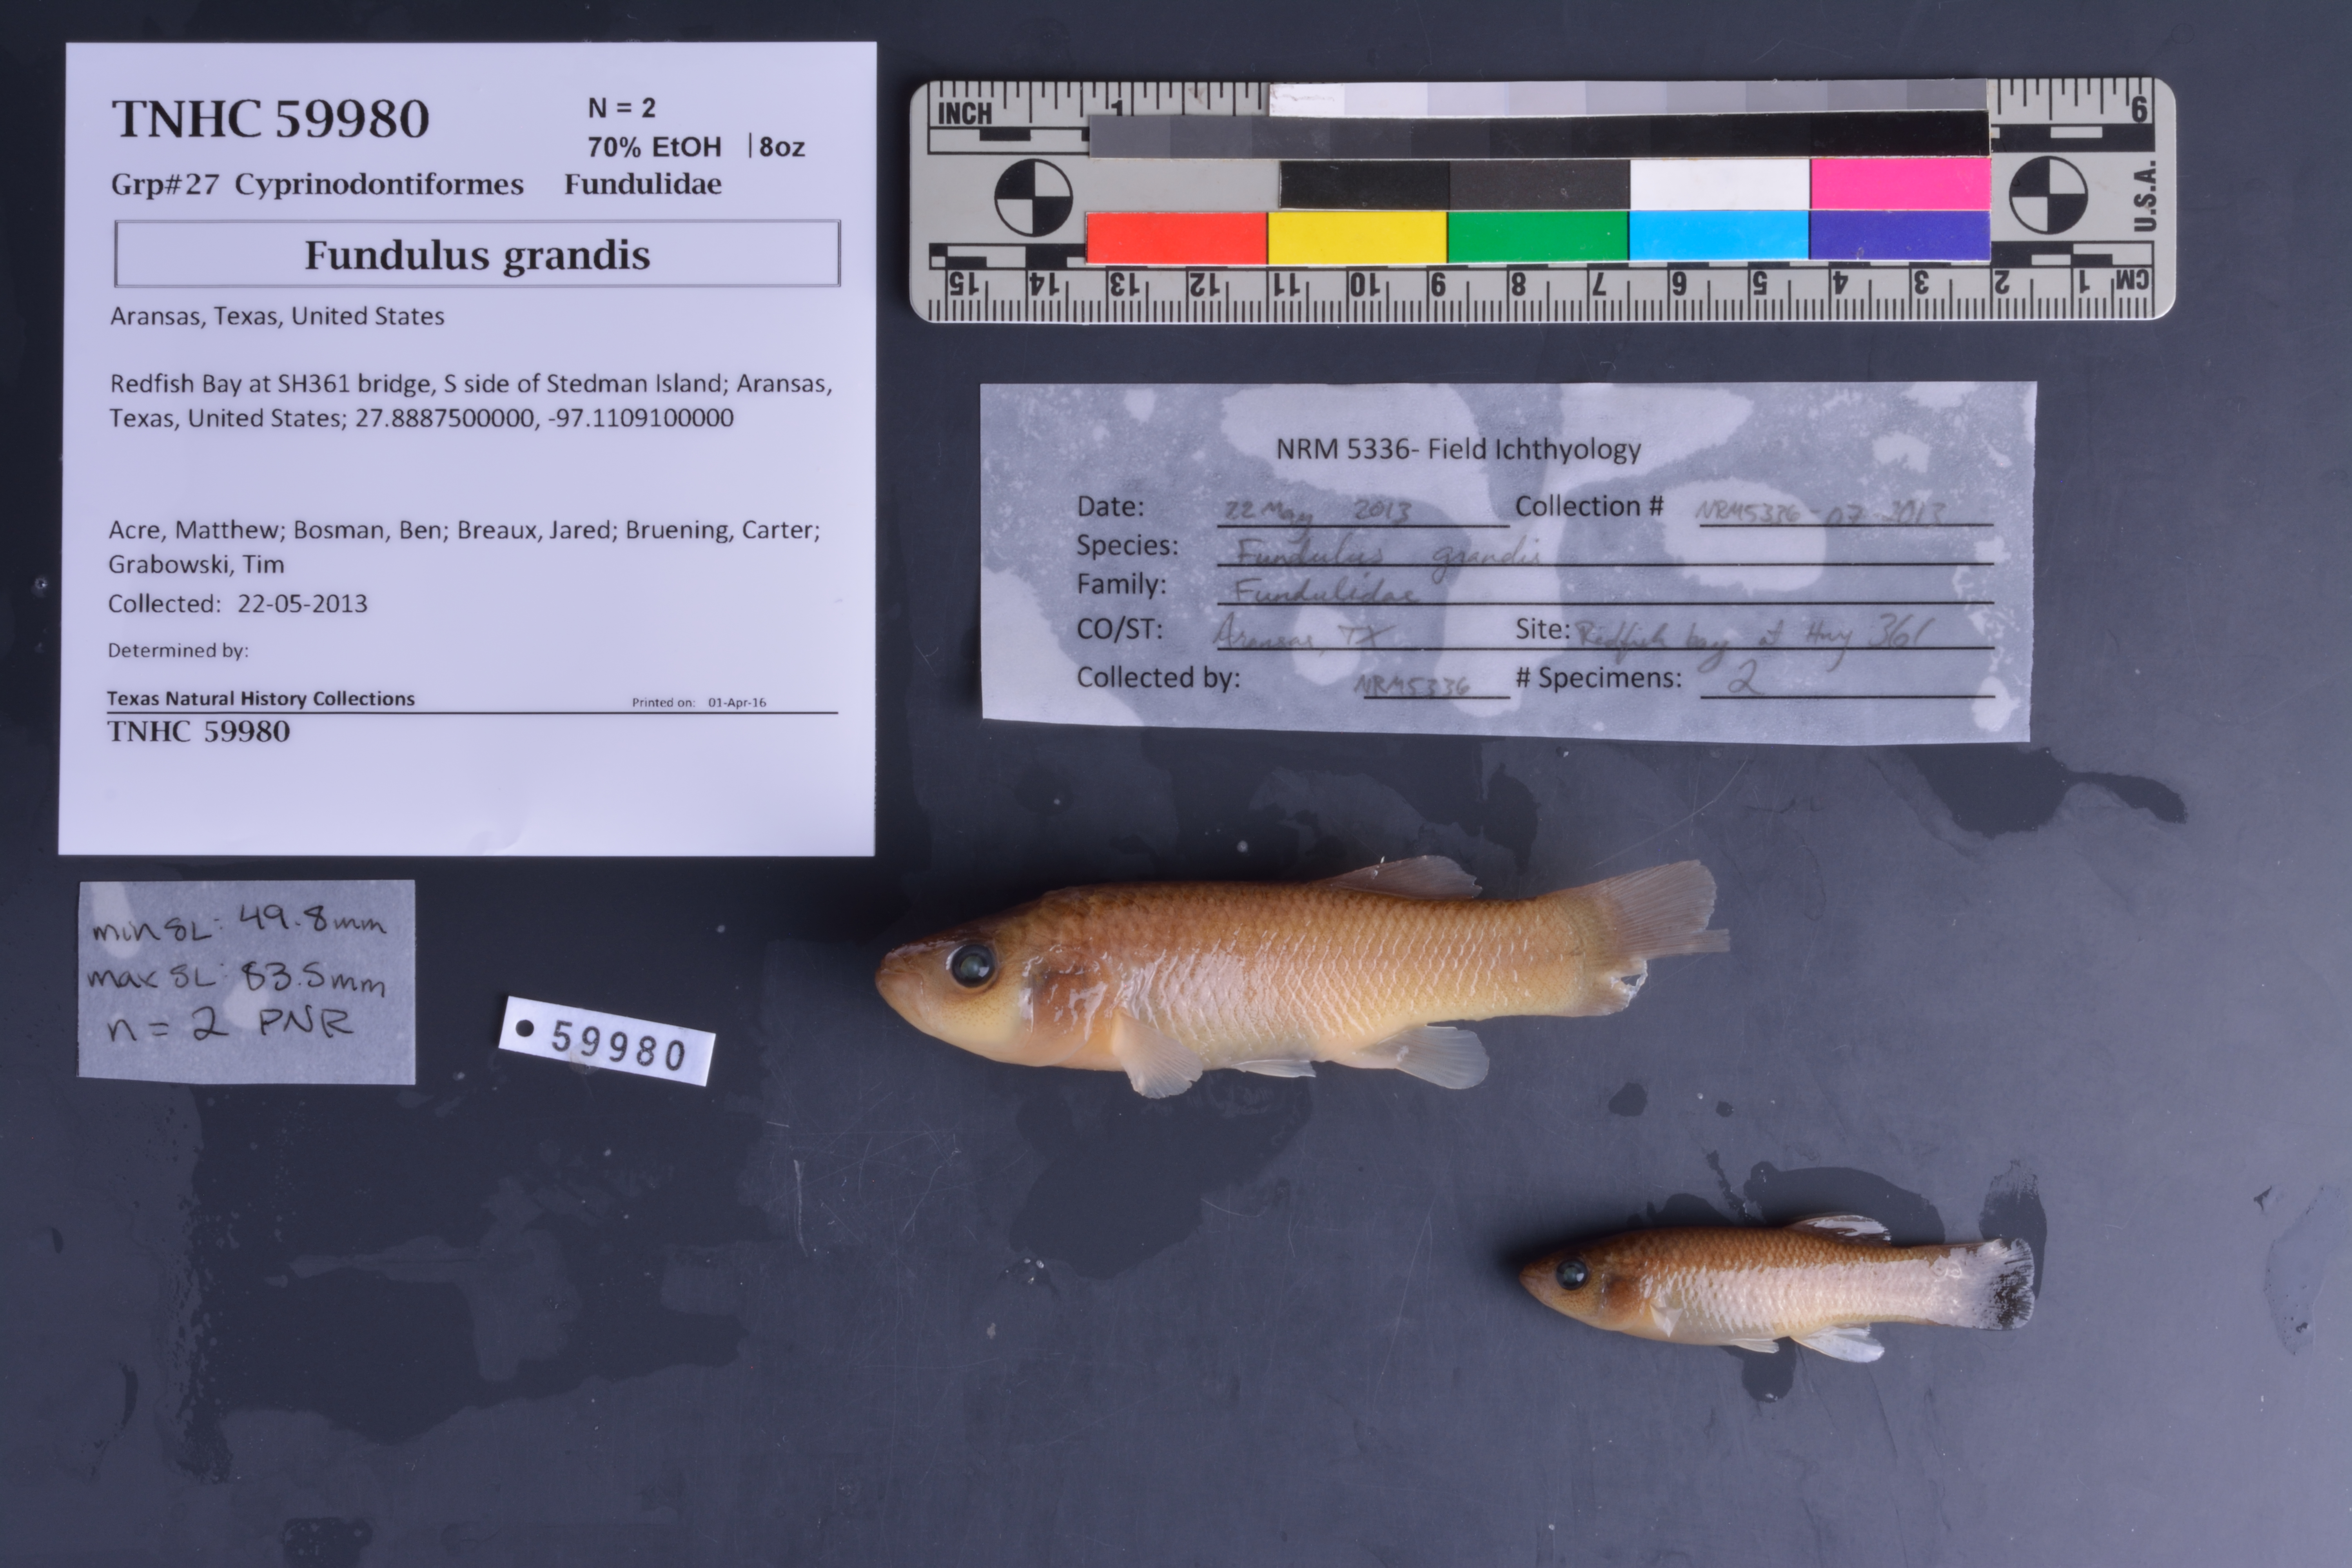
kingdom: Animalia
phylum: Chordata
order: Cyprinodontiformes
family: Fundulidae
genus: Fundulus
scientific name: Fundulus grandis
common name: Gulf killifish
